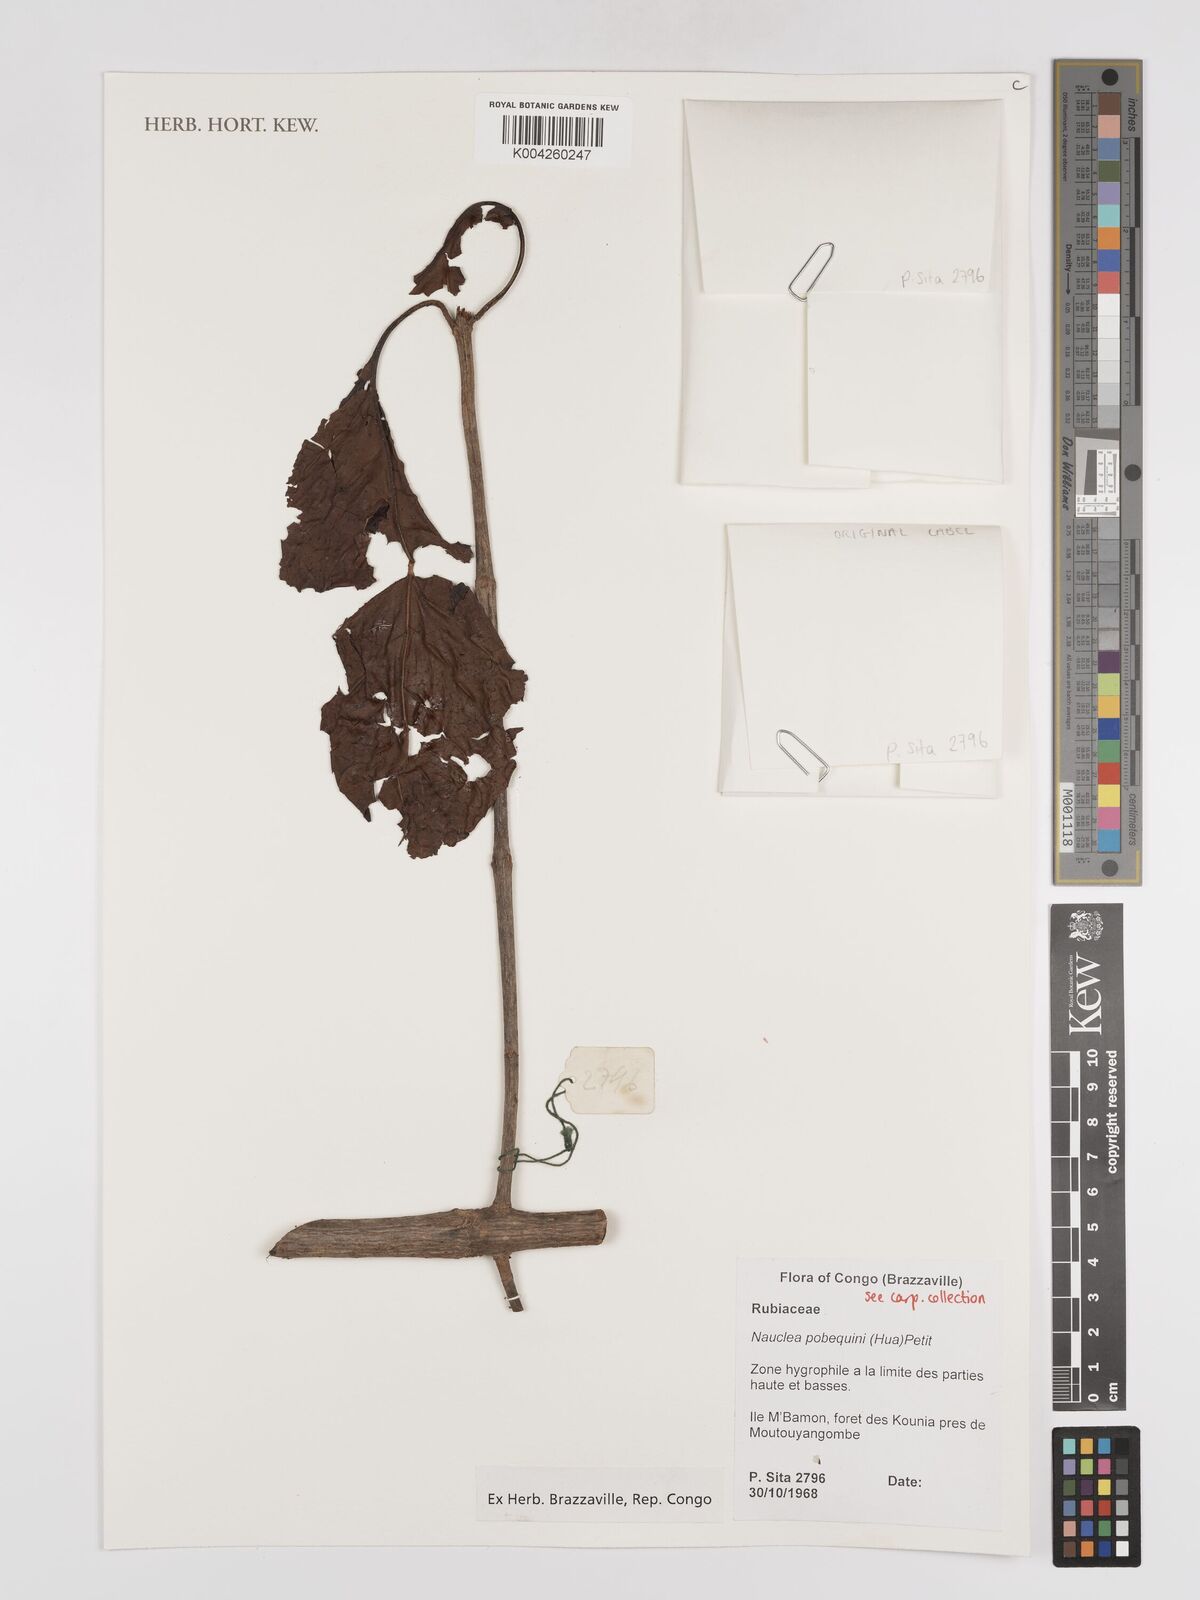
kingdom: Plantae
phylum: Tracheophyta
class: Magnoliopsida
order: Gentianales
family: Rubiaceae
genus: Nauclea
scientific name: Nauclea pobeguinii
